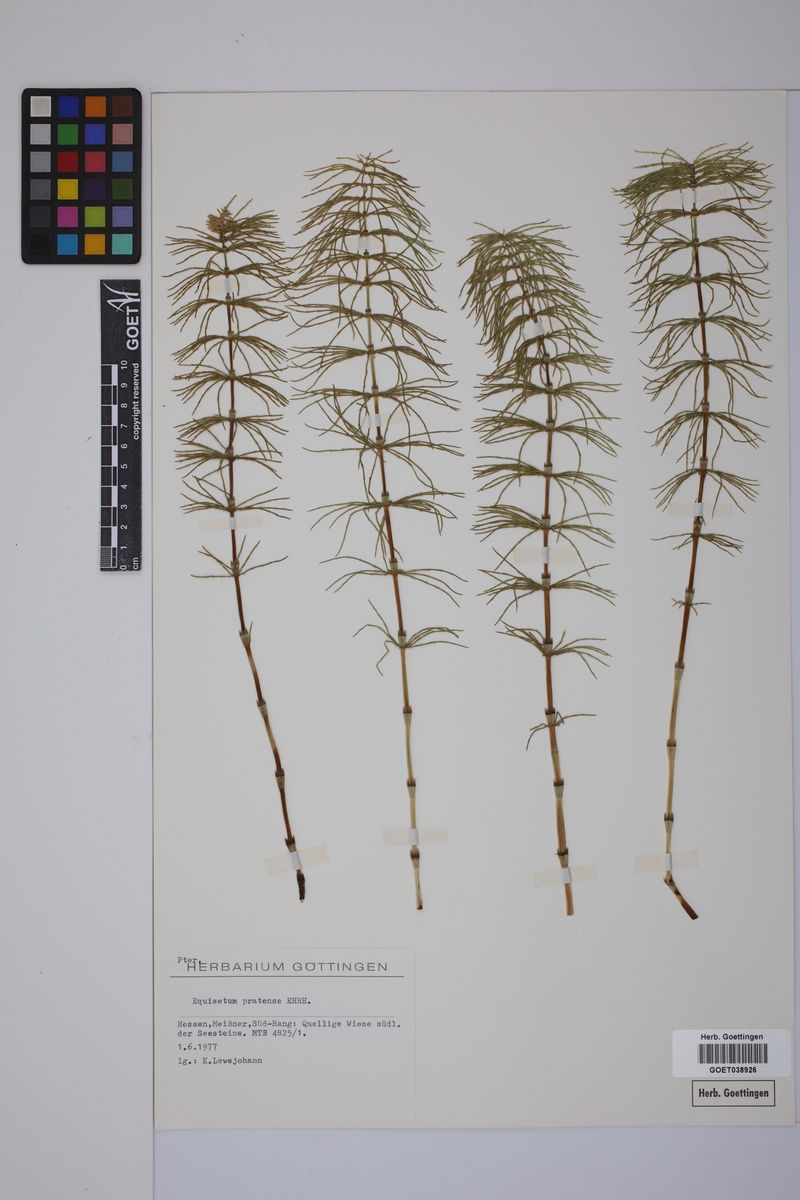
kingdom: Plantae
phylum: Tracheophyta
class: Polypodiopsida
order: Equisetales
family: Equisetaceae
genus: Equisetum
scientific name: Equisetum pratense
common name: Meadow horsetail
